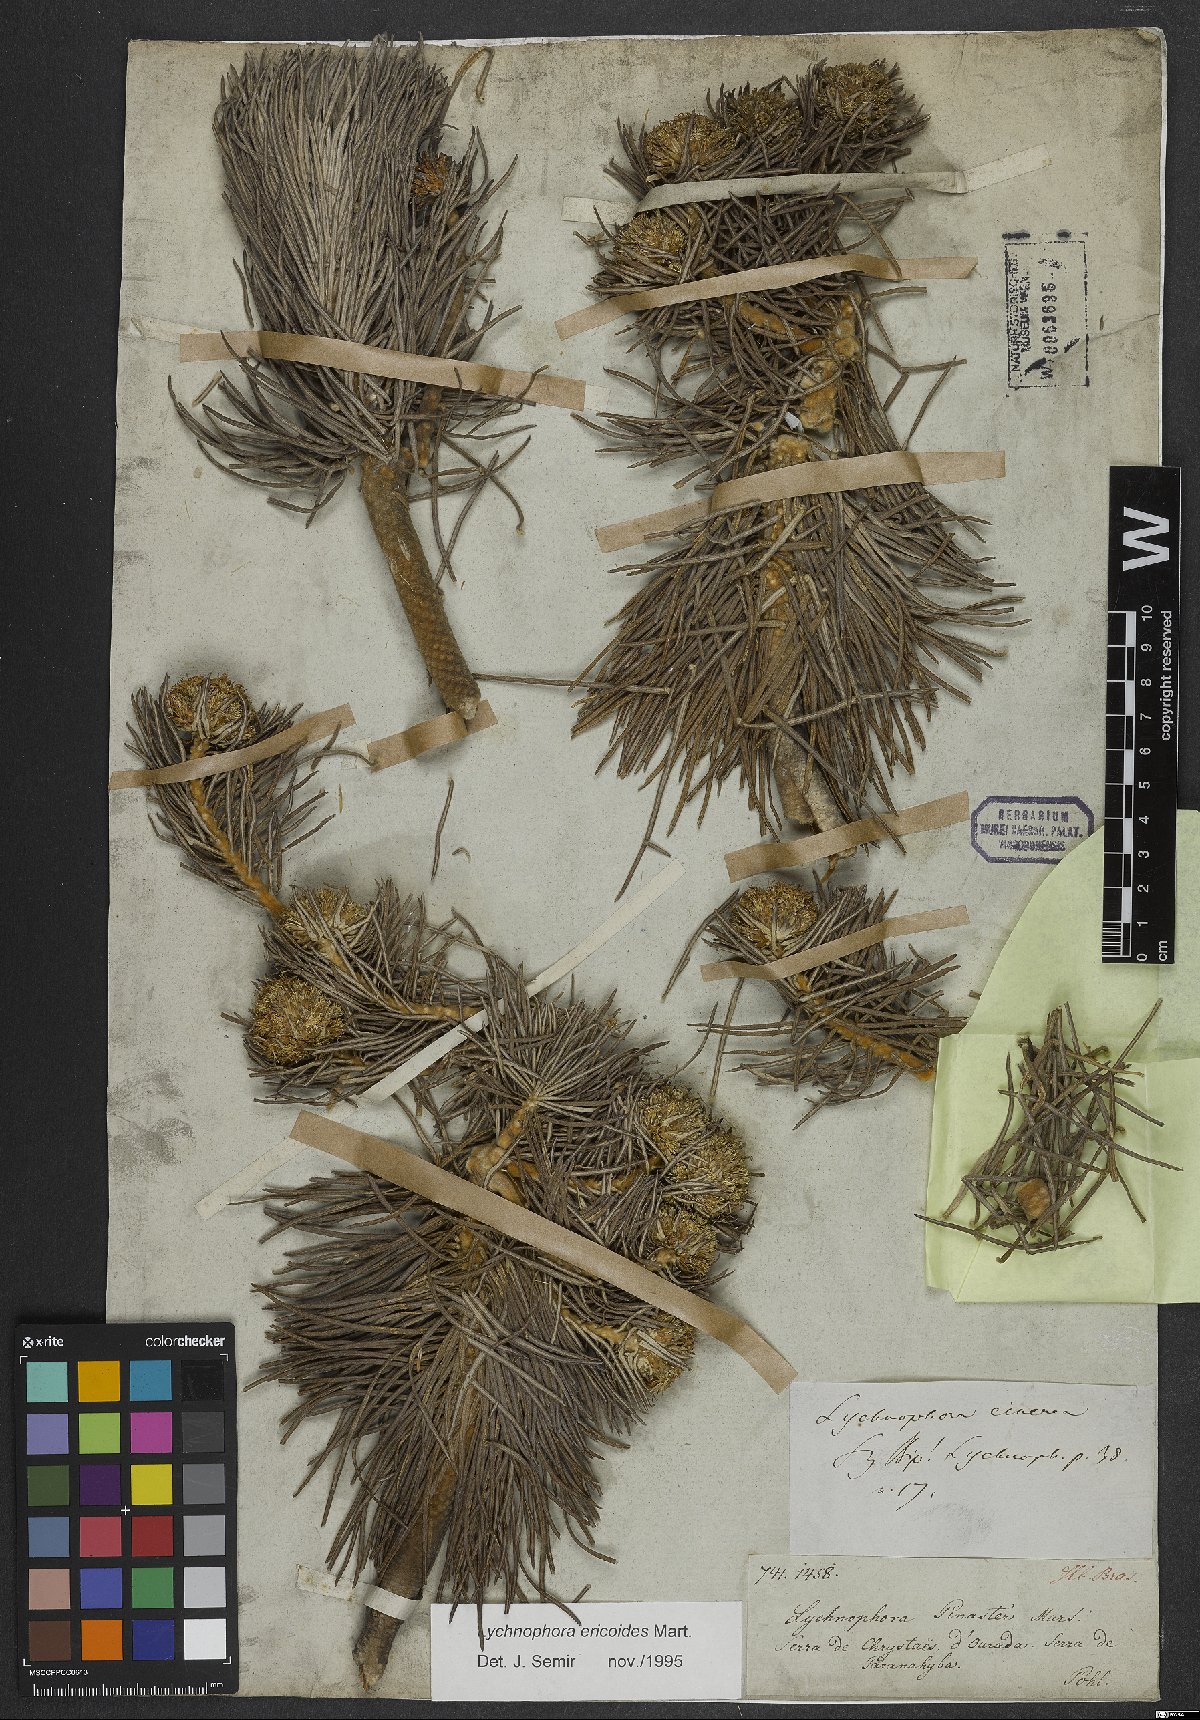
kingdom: Plantae
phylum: Tracheophyta
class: Magnoliopsida
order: Asterales
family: Asteraceae
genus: Lychnophora
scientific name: Lychnophora ericoides
